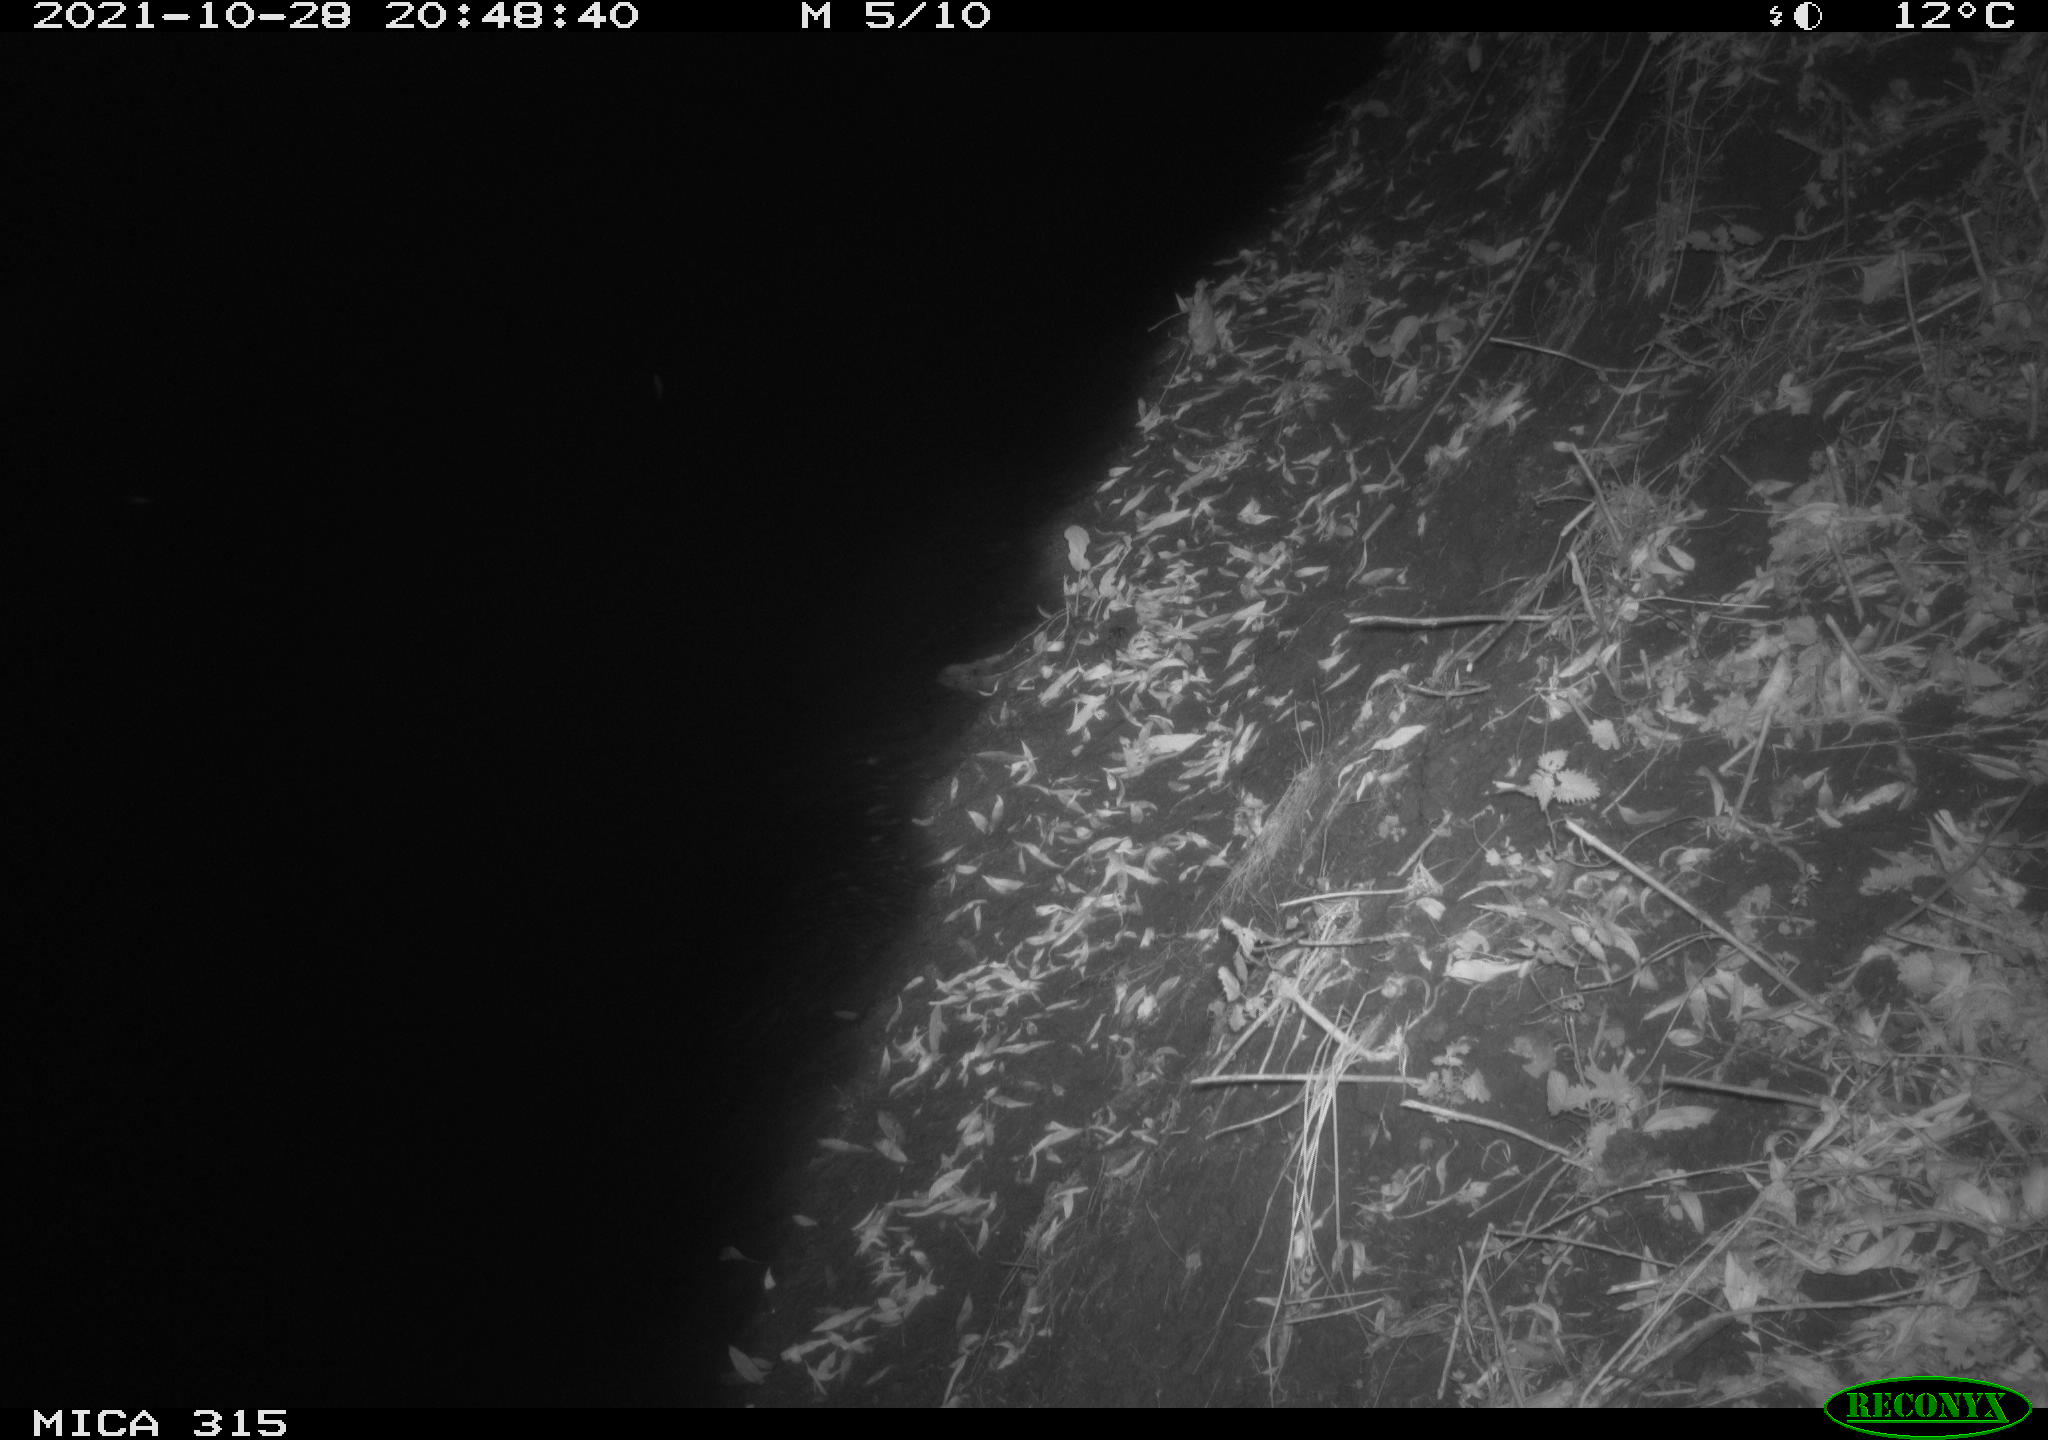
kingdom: Animalia
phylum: Chordata
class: Mammalia
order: Rodentia
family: Muridae
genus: Rattus
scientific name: Rattus norvegicus
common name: Brown rat
